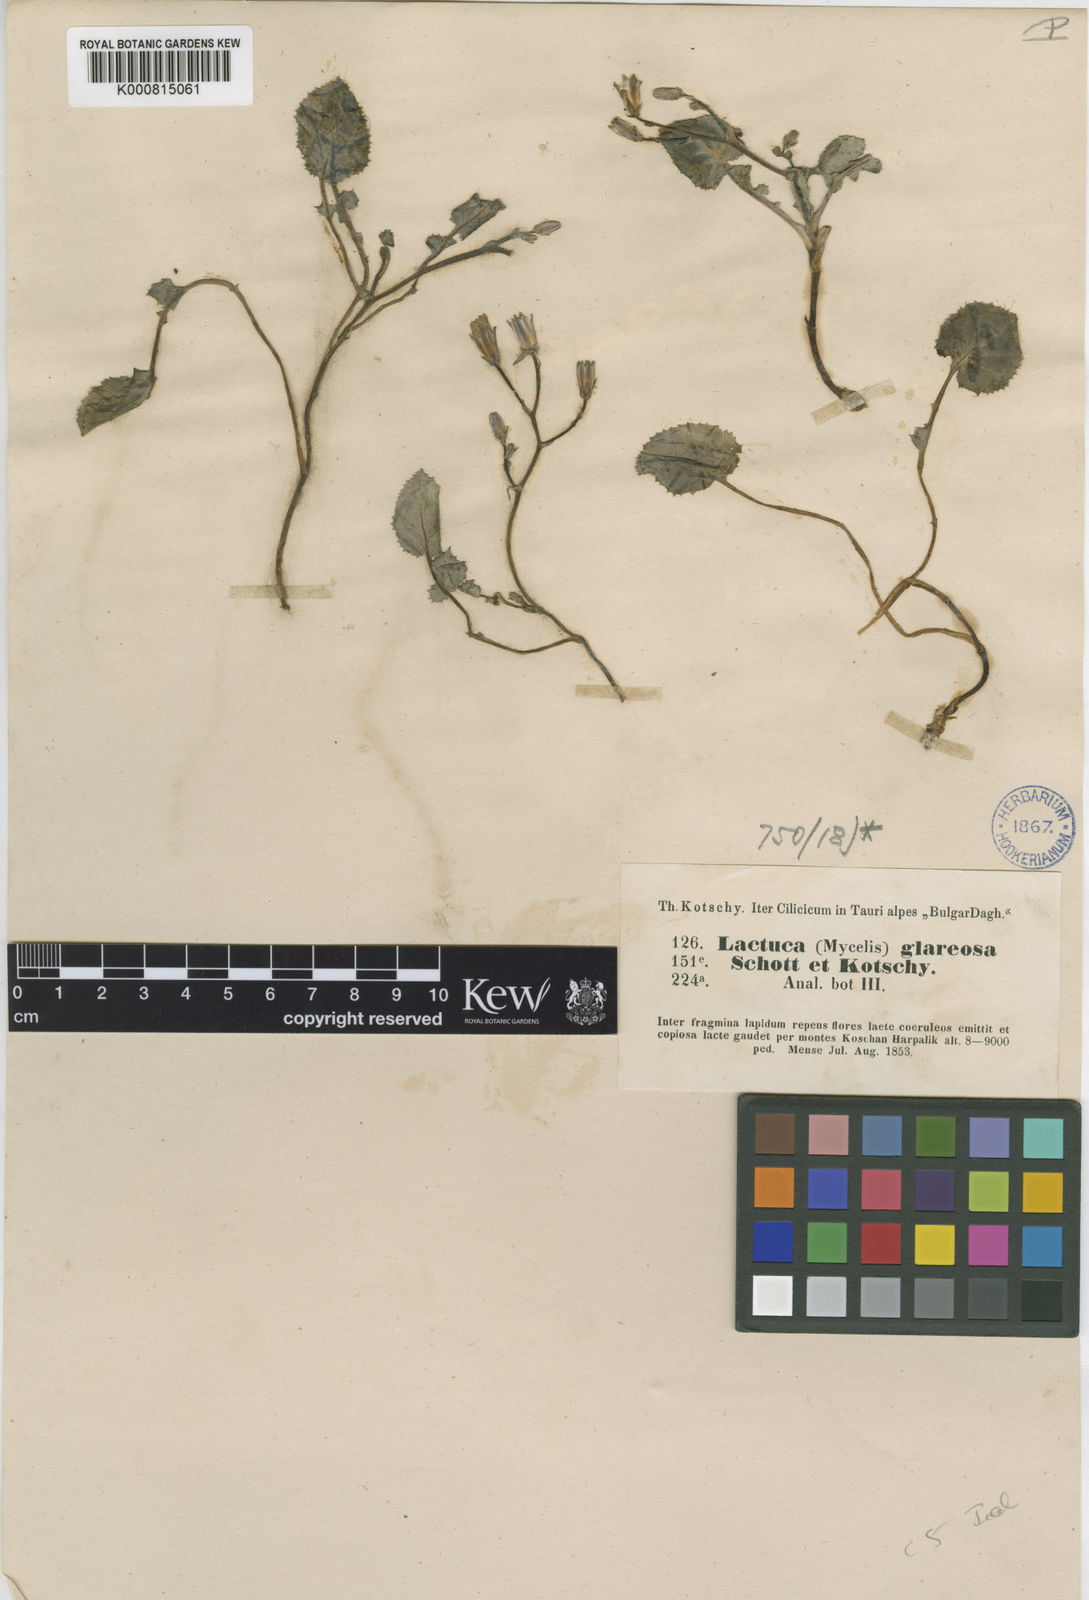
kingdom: Plantae
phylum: Tracheophyta
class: Magnoliopsida
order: Asterales
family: Asteraceae
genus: Lactuca
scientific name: Lactuca glareosa
